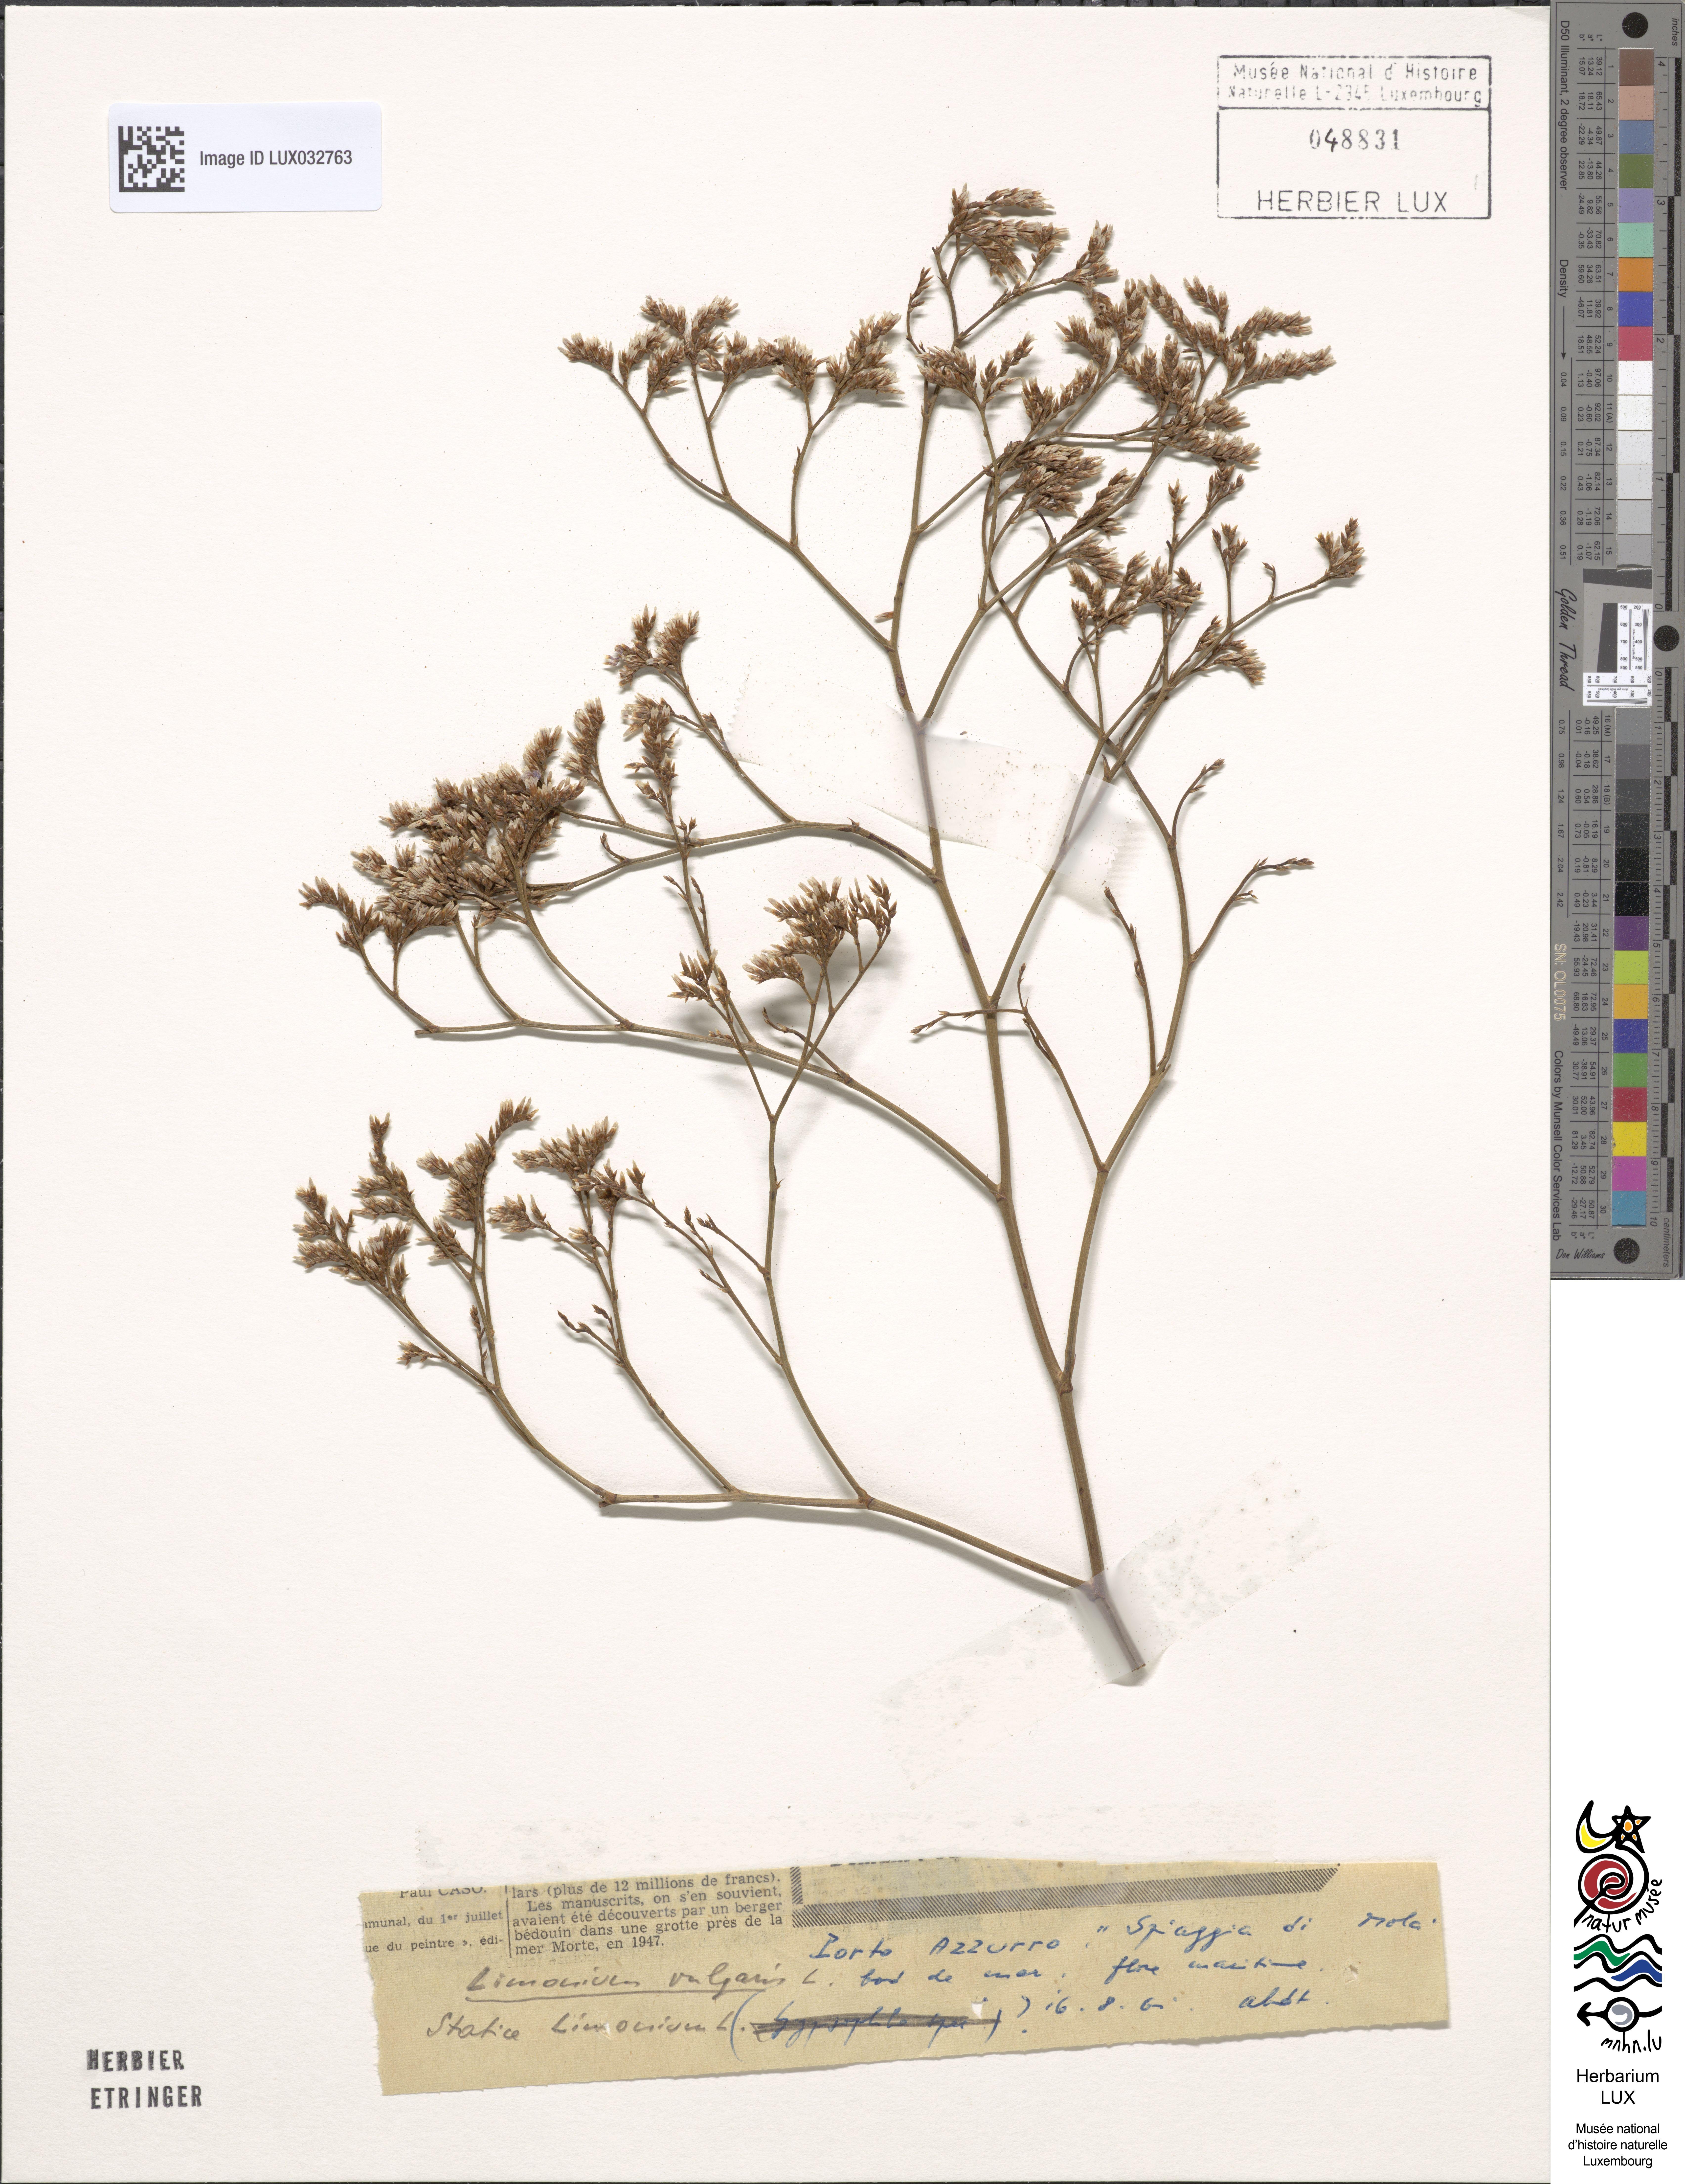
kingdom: Plantae
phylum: Tracheophyta
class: Magnoliopsida
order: Caryophyllales
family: Plumbaginaceae
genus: Limonium
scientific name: Limonium vulgare
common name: Common sea-lavender
